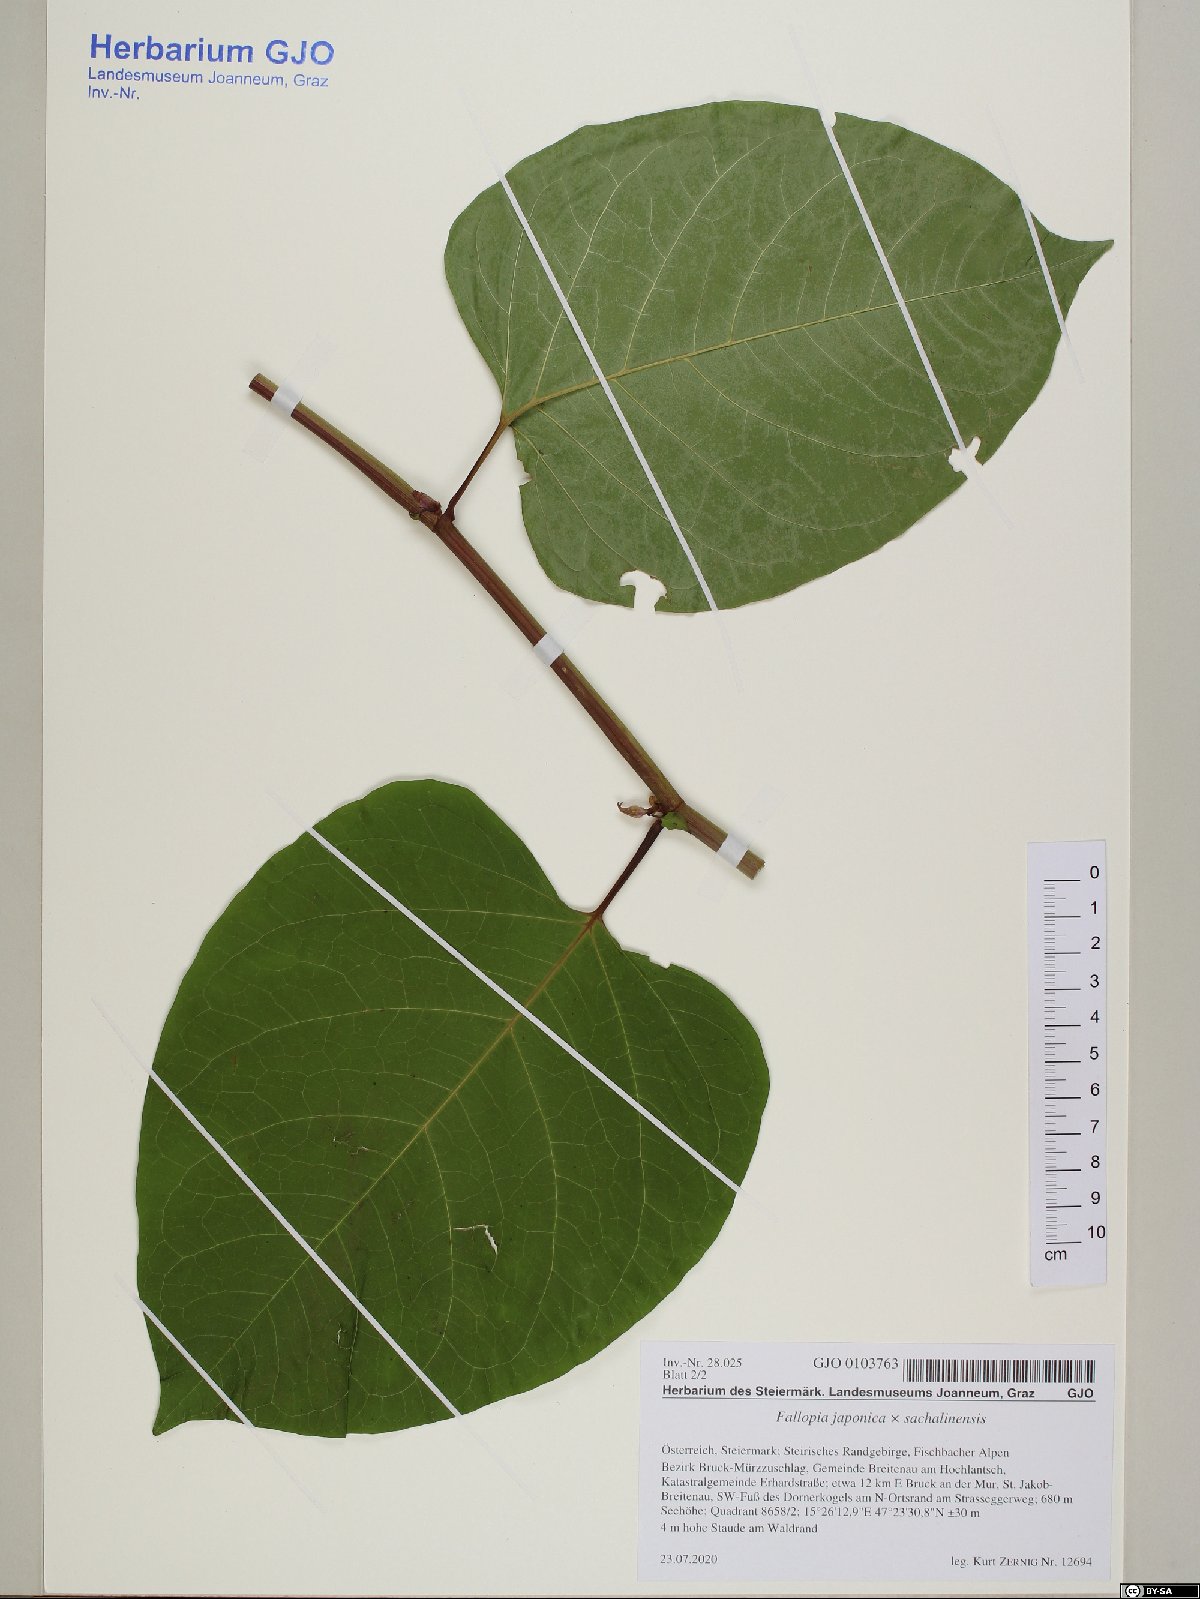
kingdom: Plantae
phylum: Tracheophyta
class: Magnoliopsida
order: Caryophyllales
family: Polygonaceae
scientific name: Polygonaceae
